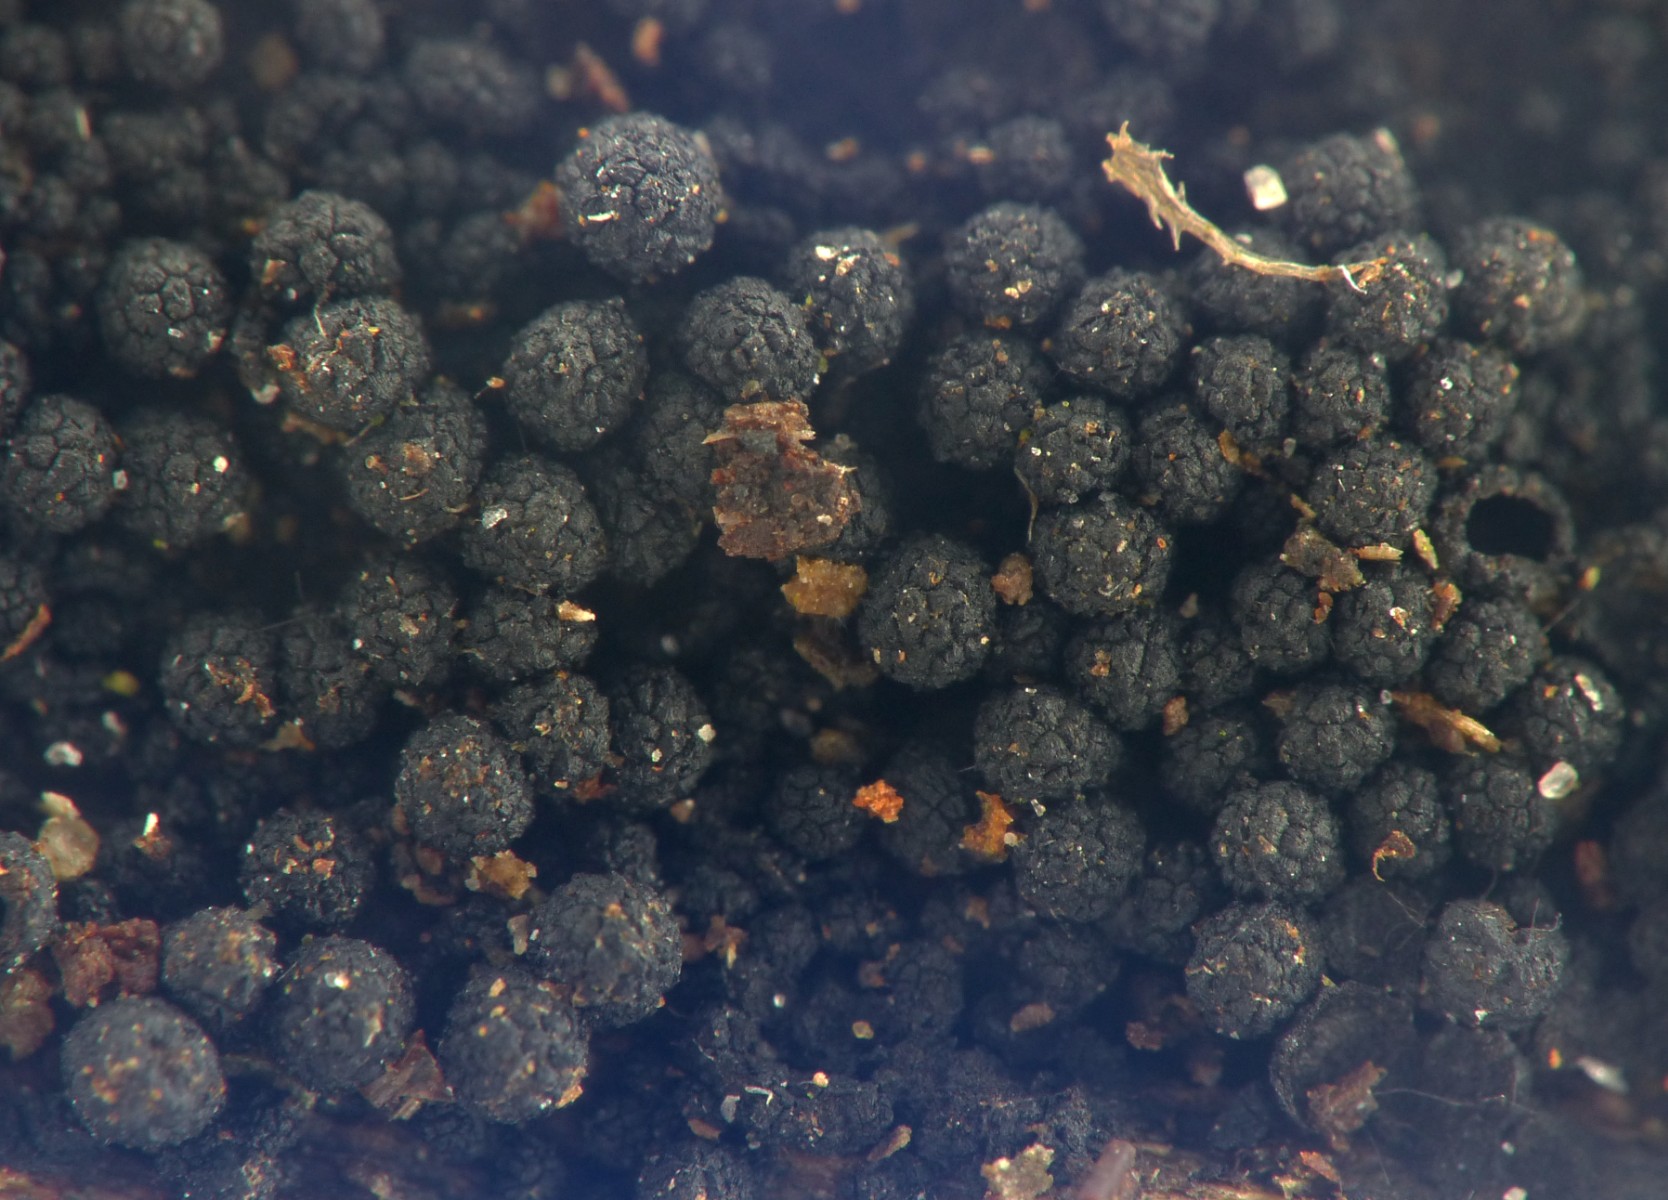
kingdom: Fungi
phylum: Ascomycota
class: Sordariomycetes
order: Coronophorales
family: Bertiaceae
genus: Bertia
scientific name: Bertia moriformis
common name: almindelig morbærkerne
